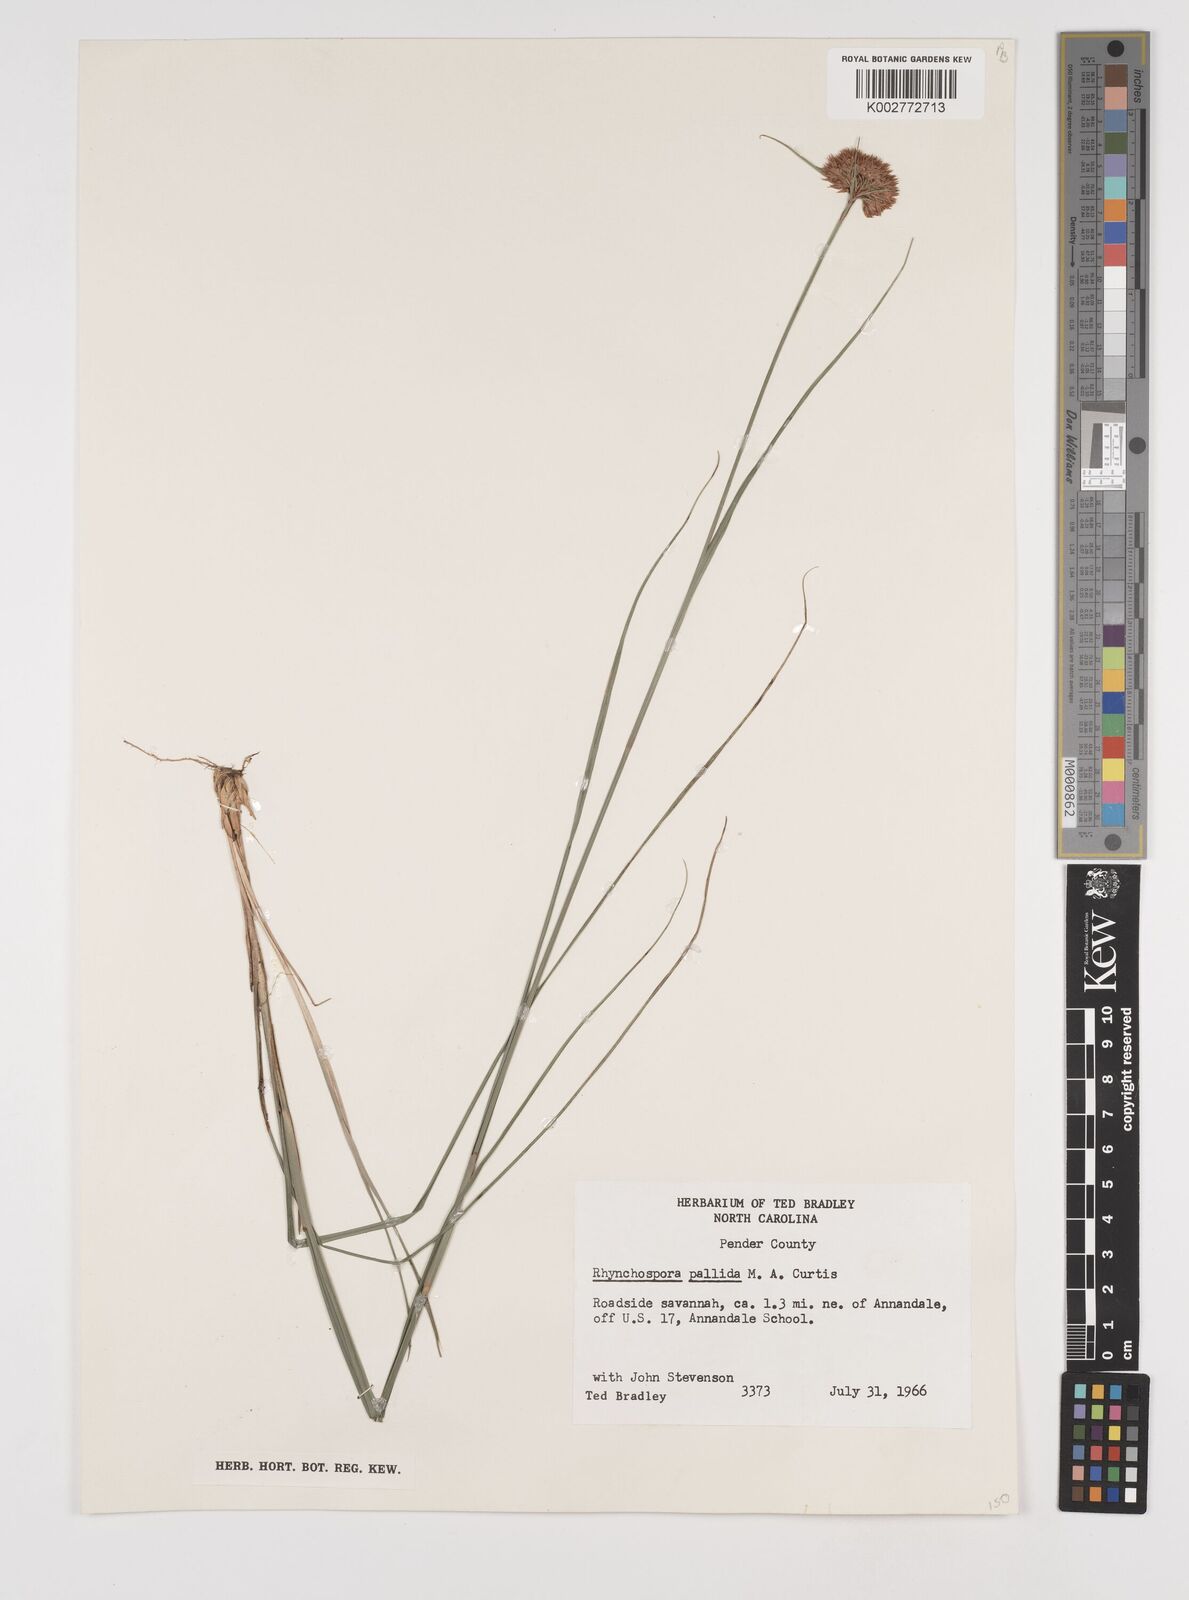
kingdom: Plantae
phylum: Tracheophyta
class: Liliopsida
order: Poales
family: Cyperaceae
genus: Rhynchospora
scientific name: Rhynchospora pallida
